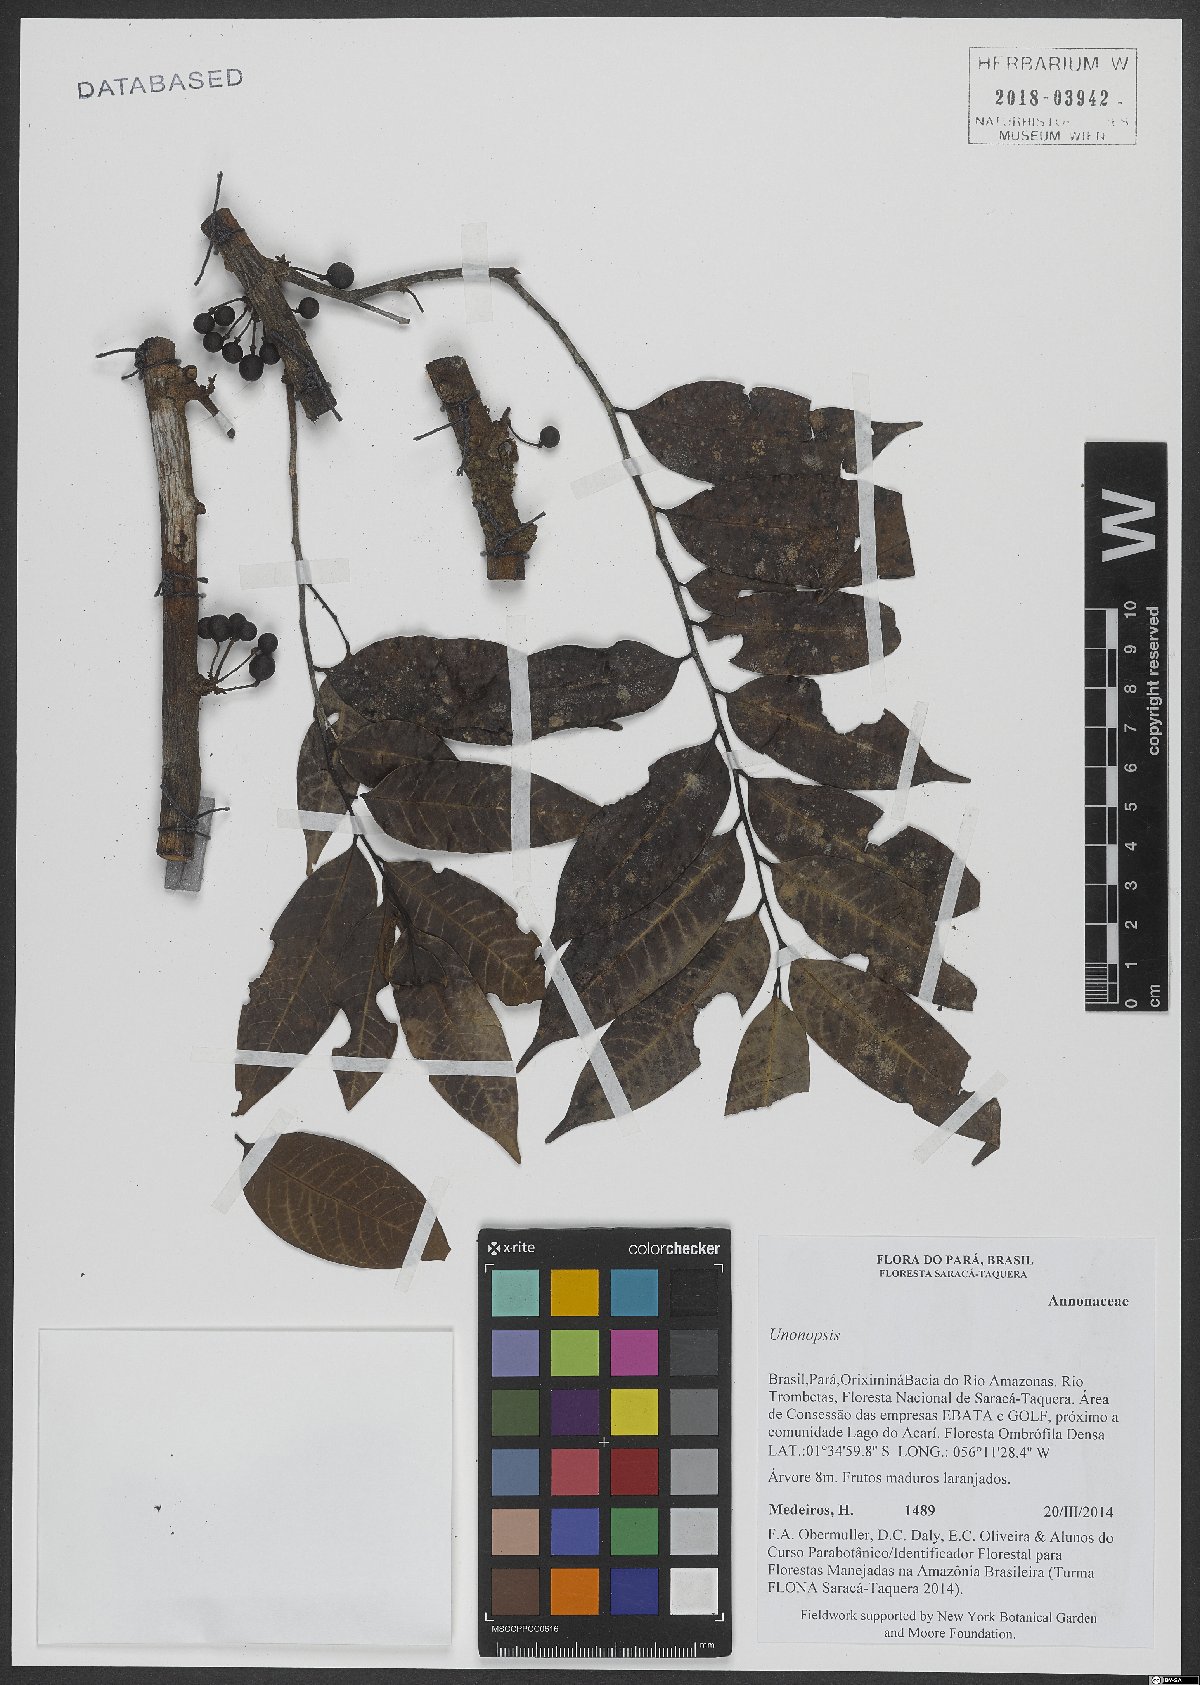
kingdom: Plantae
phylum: Tracheophyta
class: Magnoliopsida
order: Magnoliales
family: Annonaceae
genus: Unonopsis
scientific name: Unonopsis
